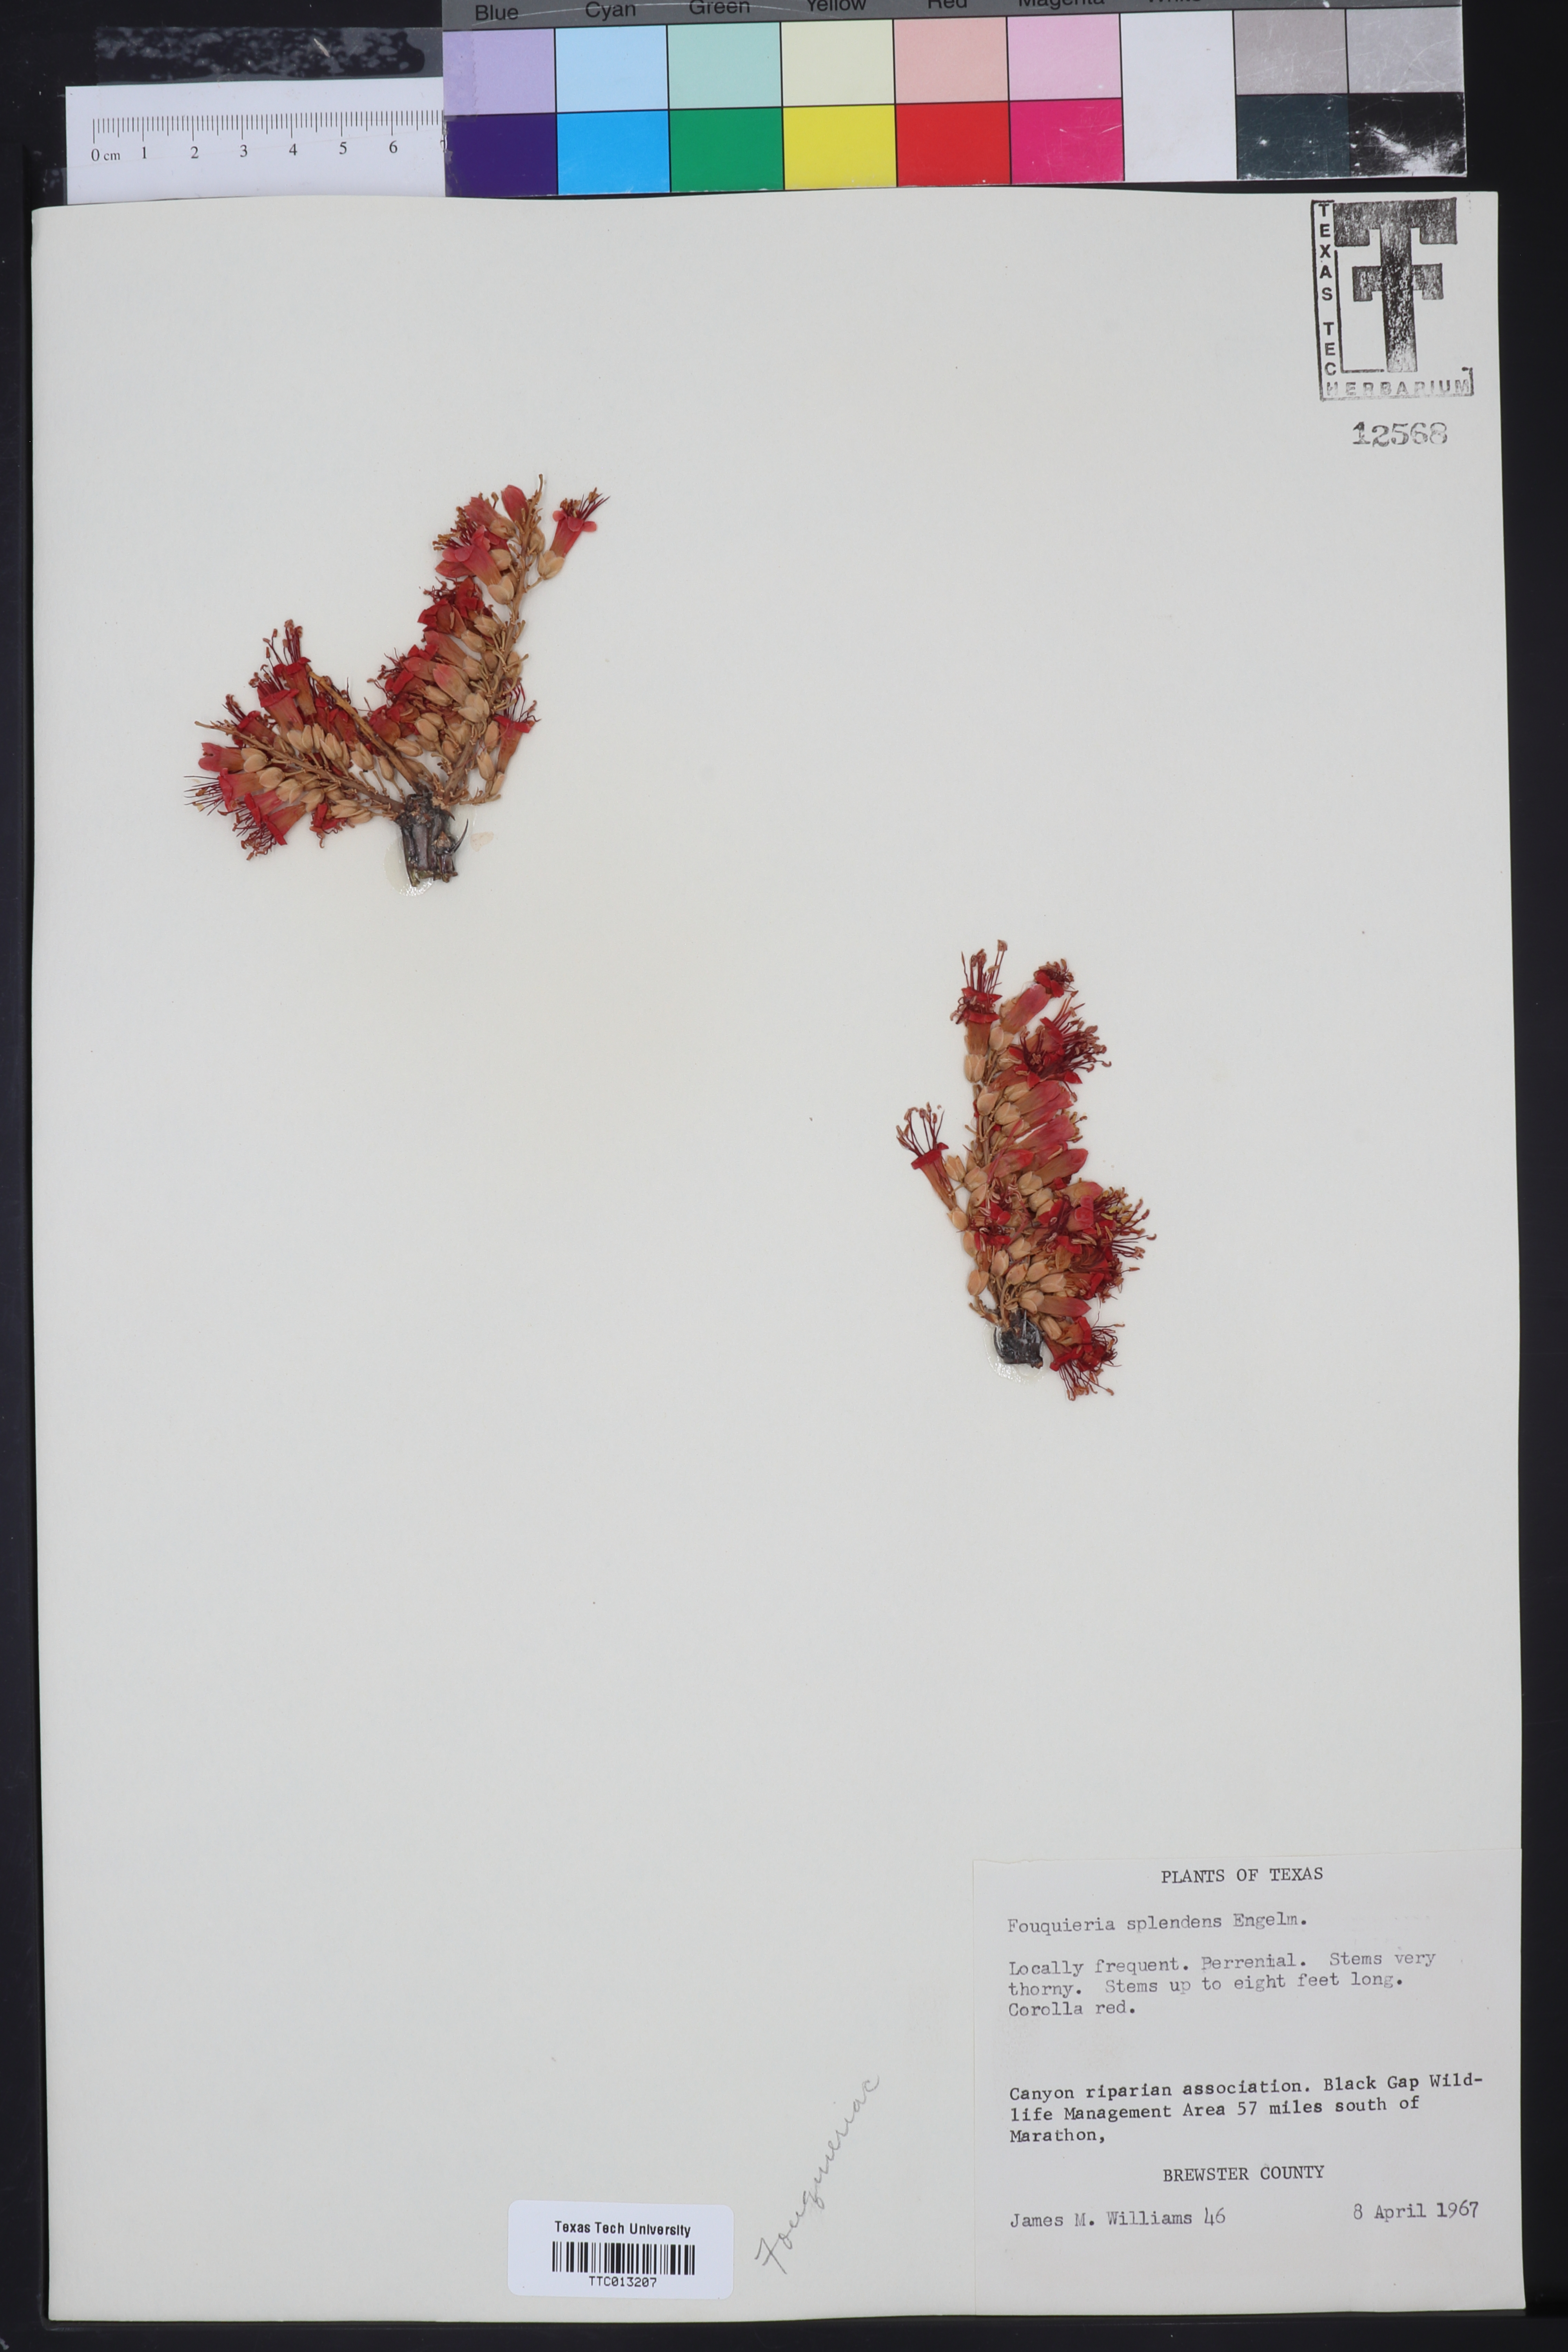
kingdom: Plantae
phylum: Tracheophyta
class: Magnoliopsida
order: Ericales
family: Fouquieriaceae
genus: Fouquieria
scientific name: Fouquieria splendens
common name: Vine-cactus
